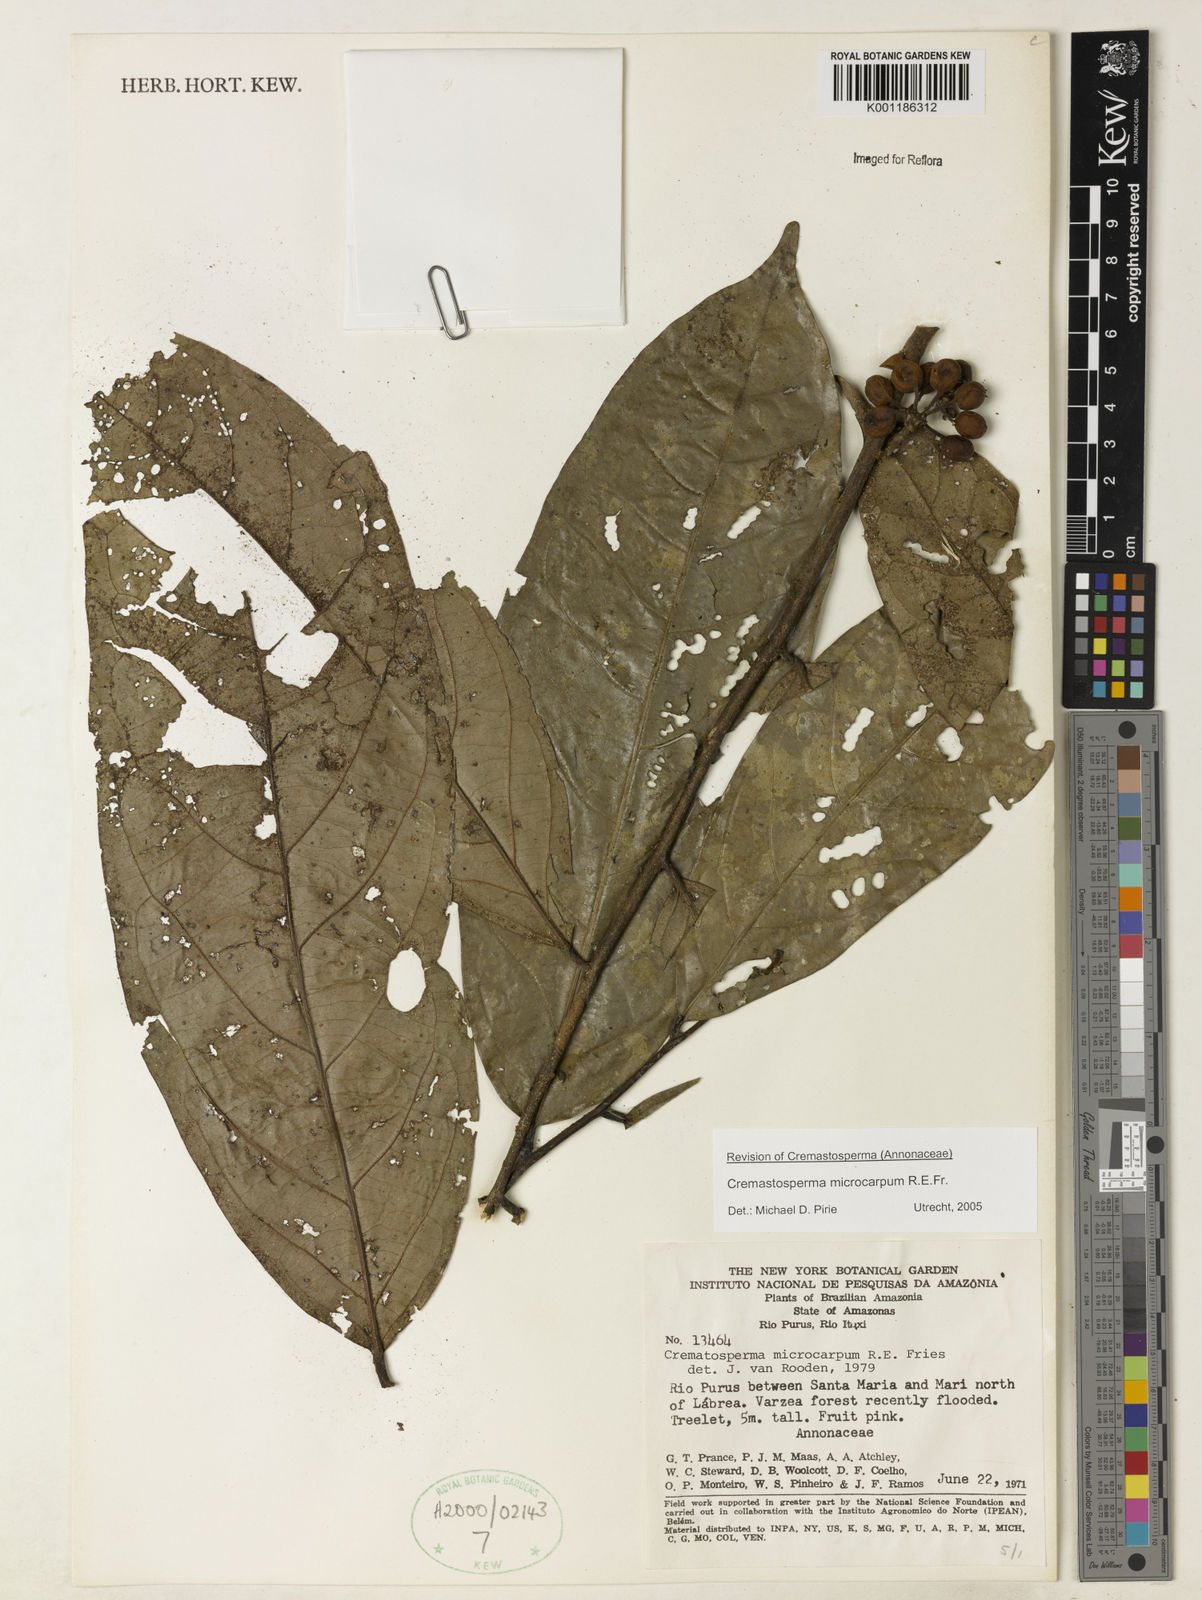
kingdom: Plantae
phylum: Tracheophyta
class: Magnoliopsida
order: Magnoliales
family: Annonaceae
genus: Cremastosperma
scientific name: Cremastosperma microcarpum
